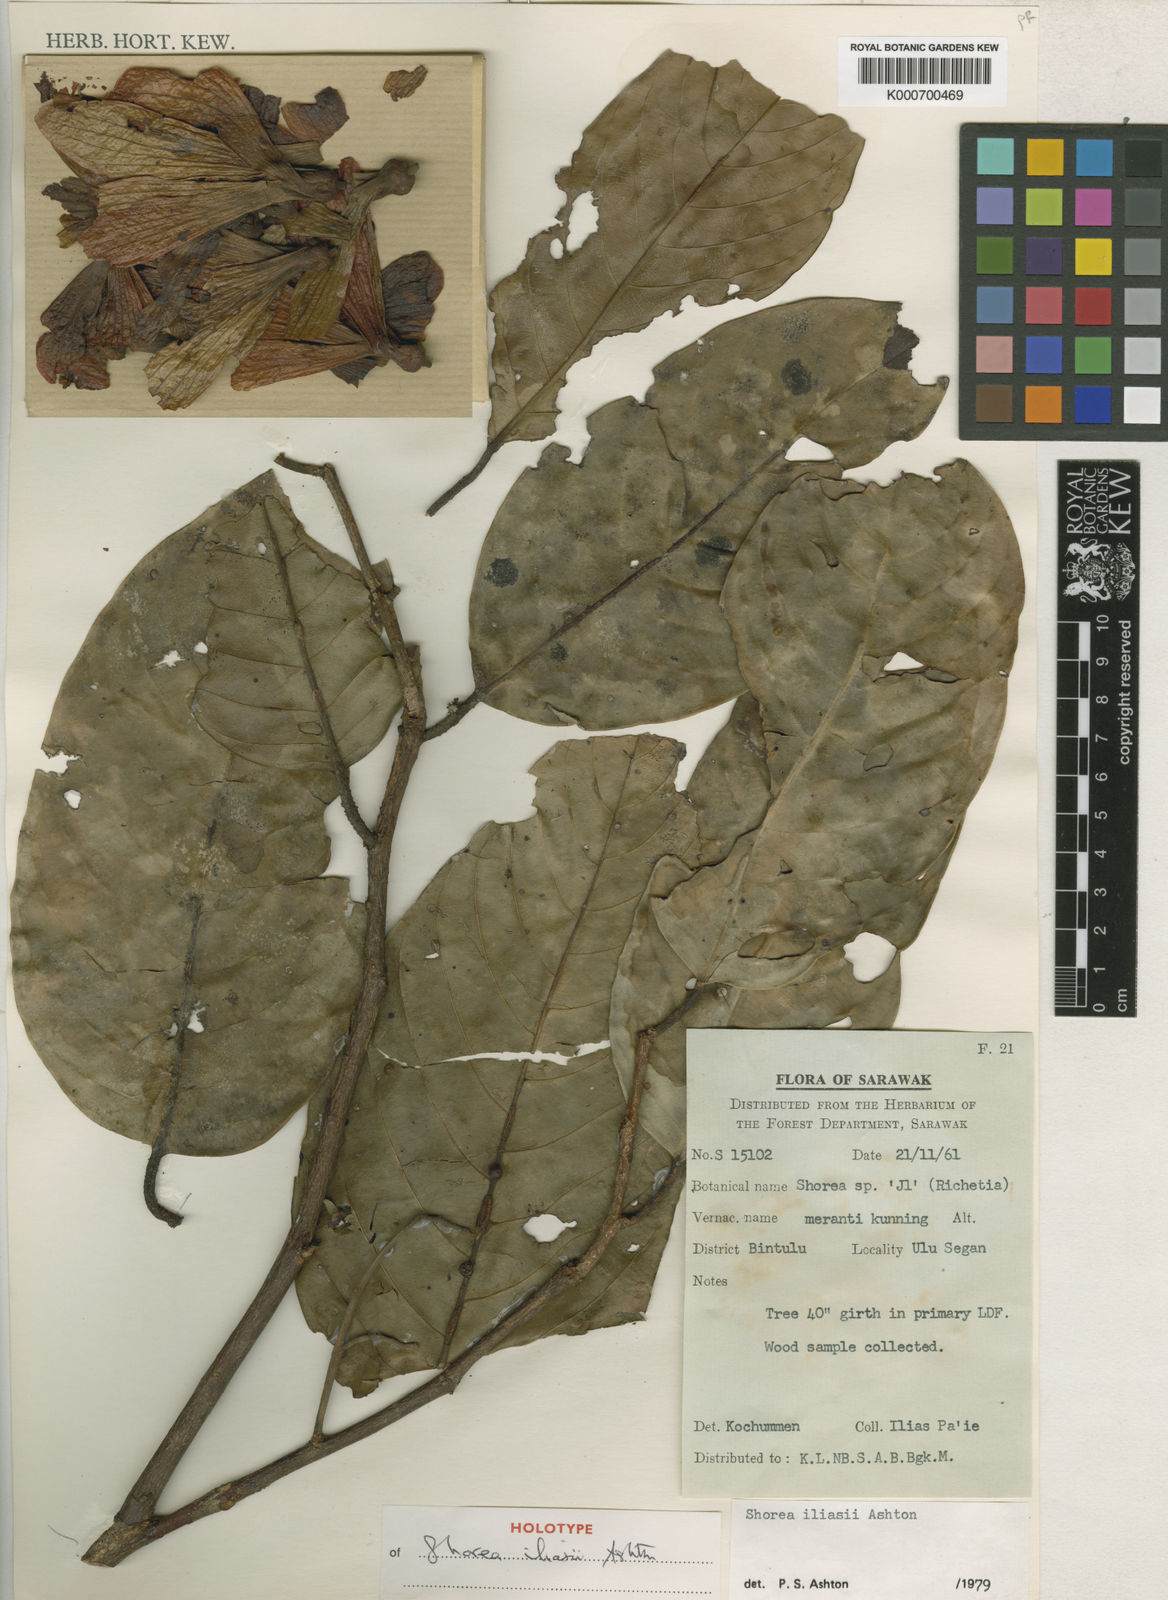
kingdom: Plantae
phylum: Tracheophyta
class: Magnoliopsida
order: Malvales
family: Dipterocarpaceae
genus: Shorea
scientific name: Shorea iliasii
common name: Yellow meranti
